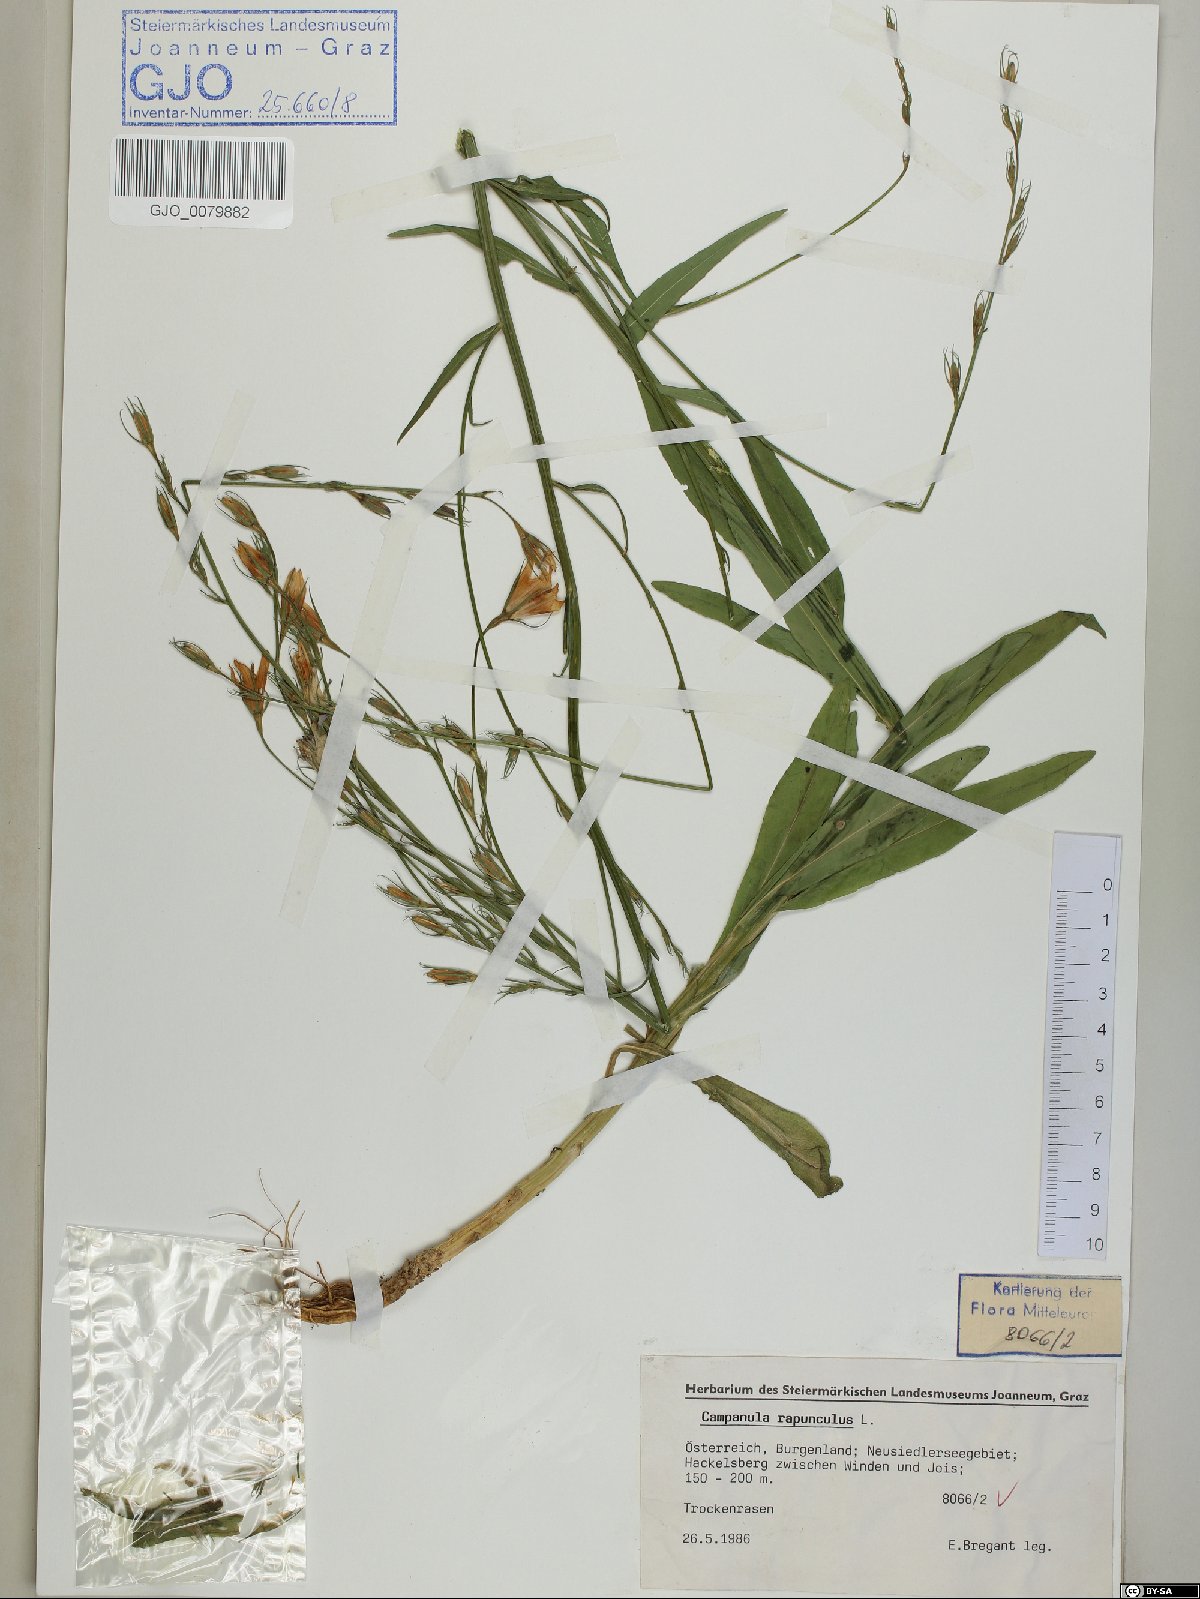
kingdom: Plantae
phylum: Tracheophyta
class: Magnoliopsida
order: Asterales
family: Campanulaceae
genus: Campanula
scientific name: Campanula rapunculus
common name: Rampion bellflower
